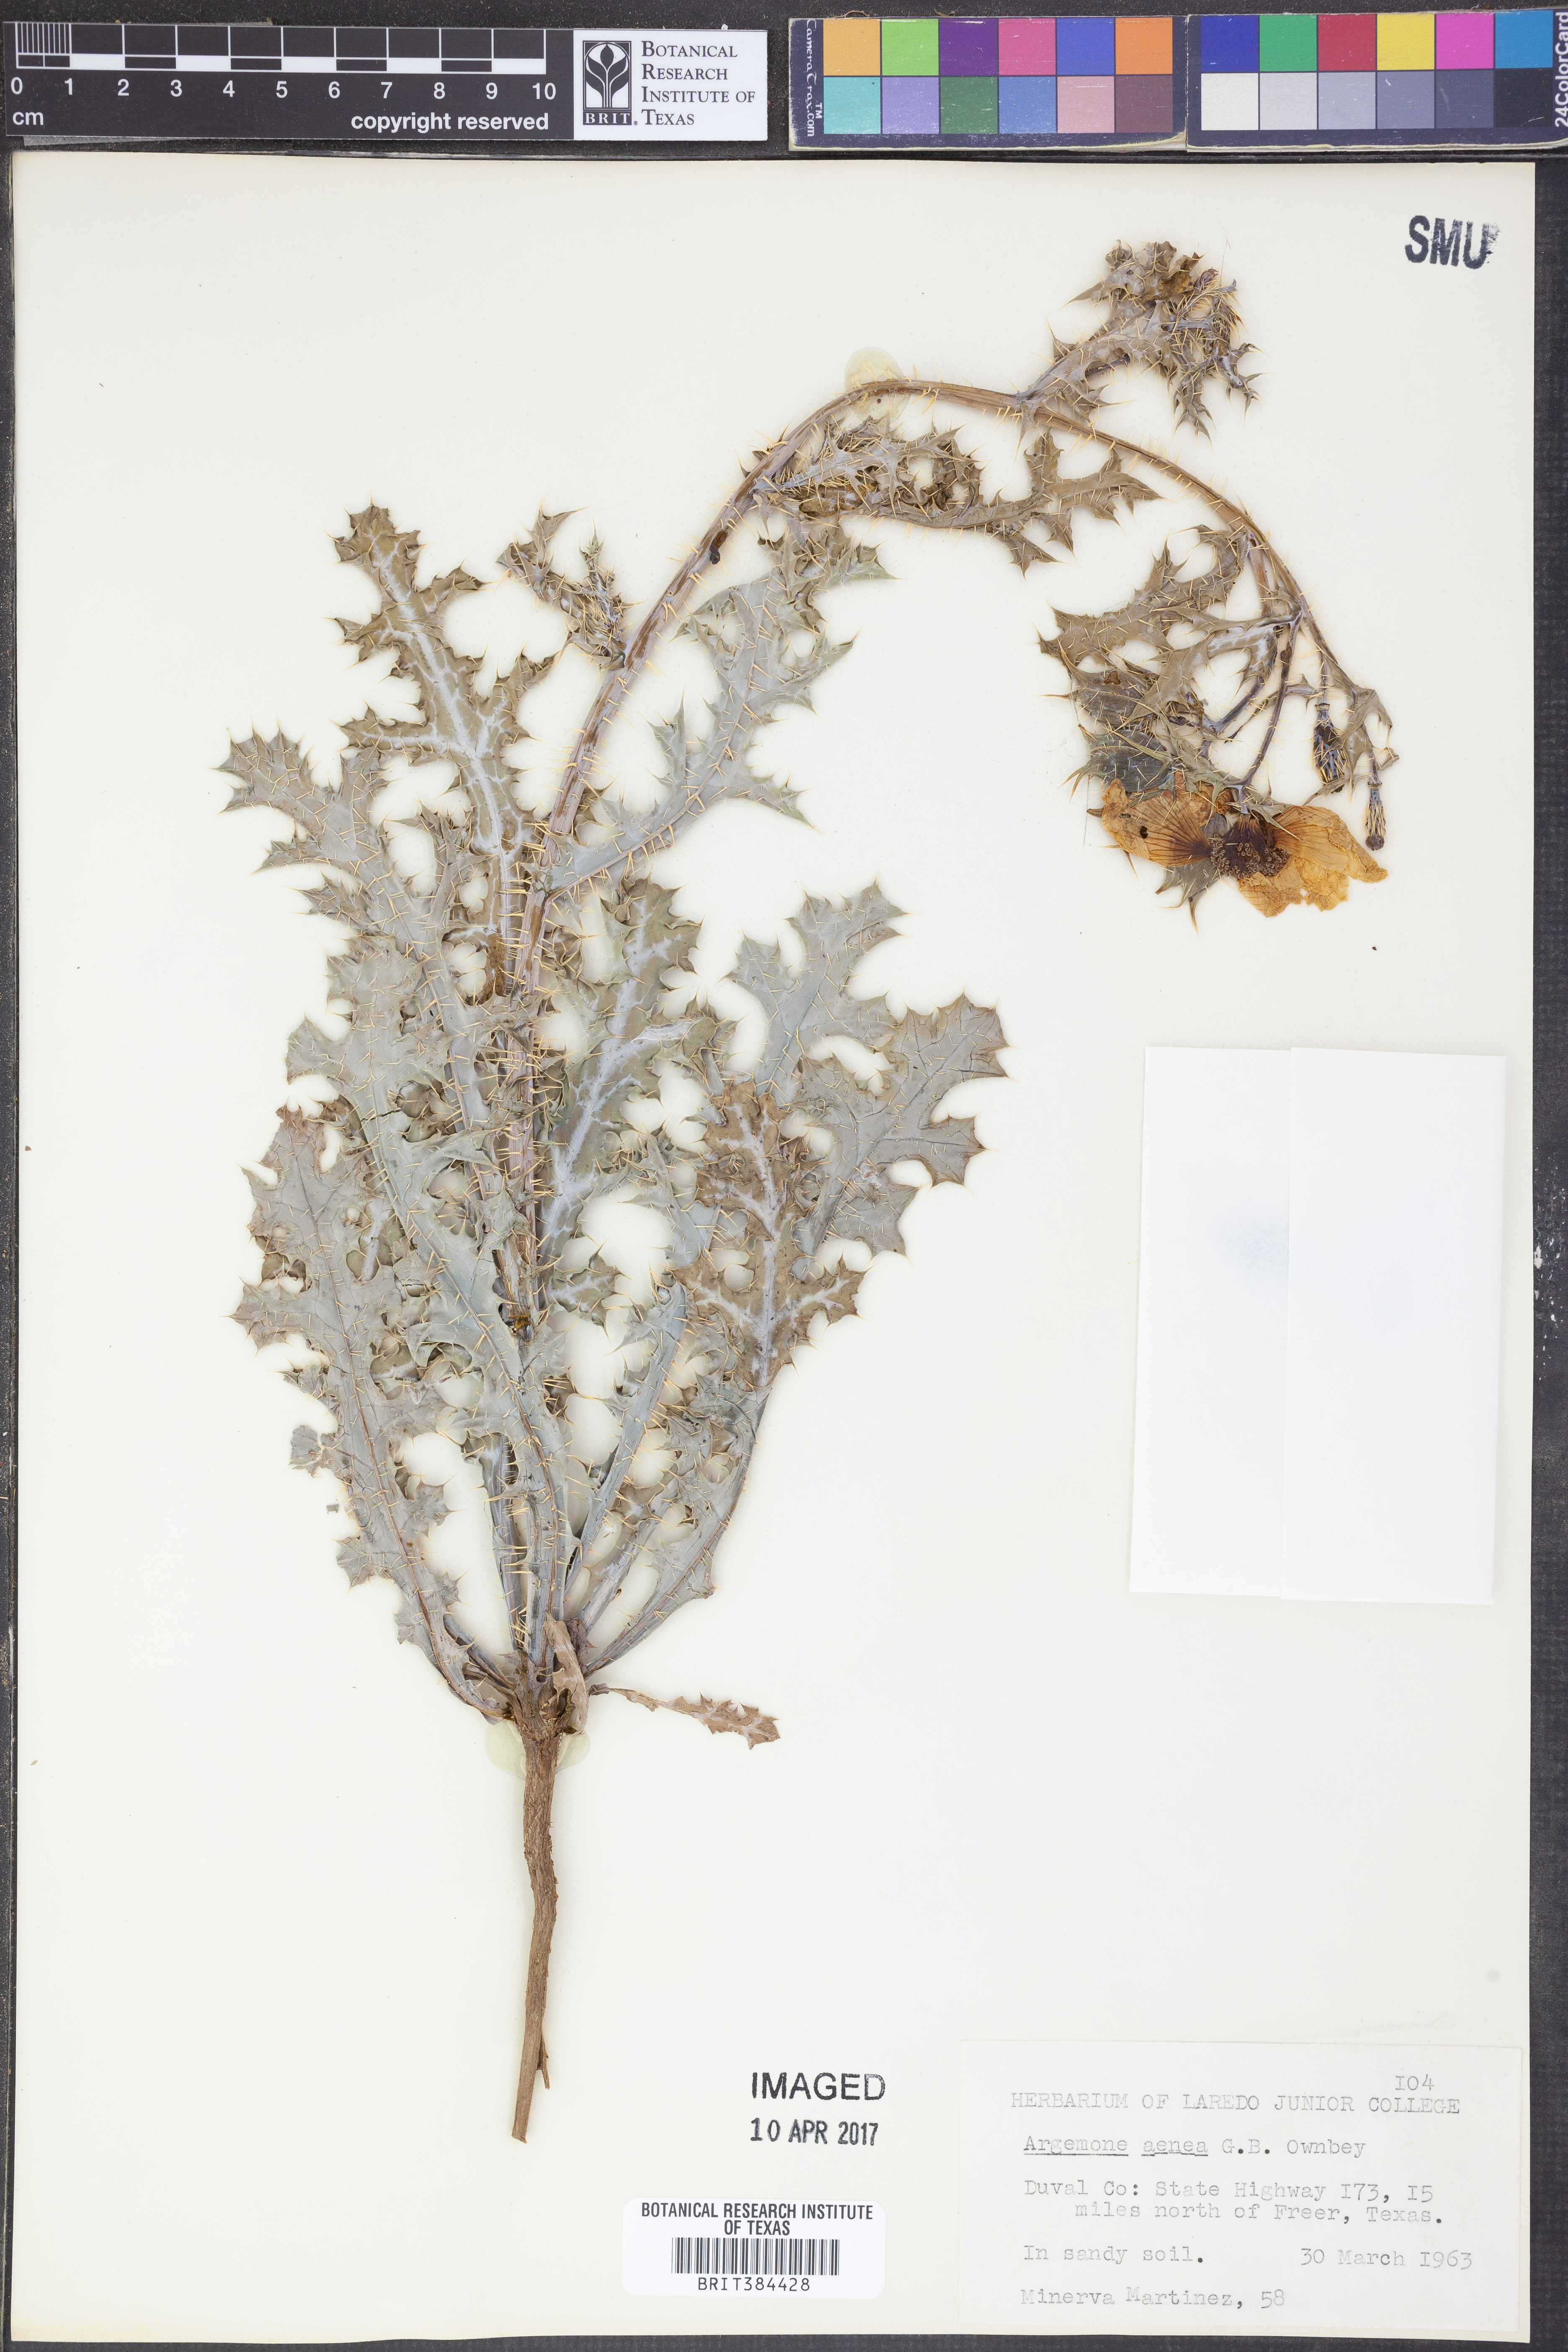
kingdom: Plantae
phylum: Tracheophyta
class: Magnoliopsida
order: Ranunculales
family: Papaveraceae
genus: Argemone
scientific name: Argemone aenea
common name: Golden prickly-poppy
